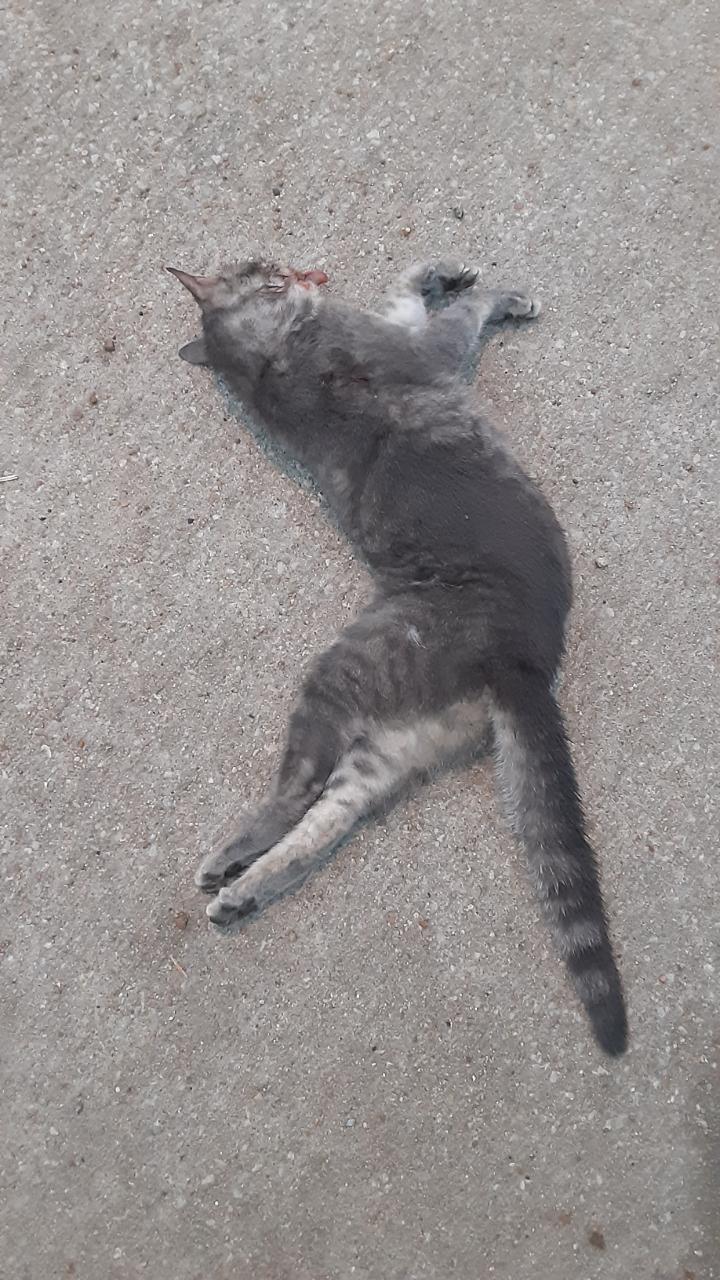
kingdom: Animalia
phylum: Chordata
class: Mammalia
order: Carnivora
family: Felidae
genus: Felis
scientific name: Felis catus
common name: Domestic cat
